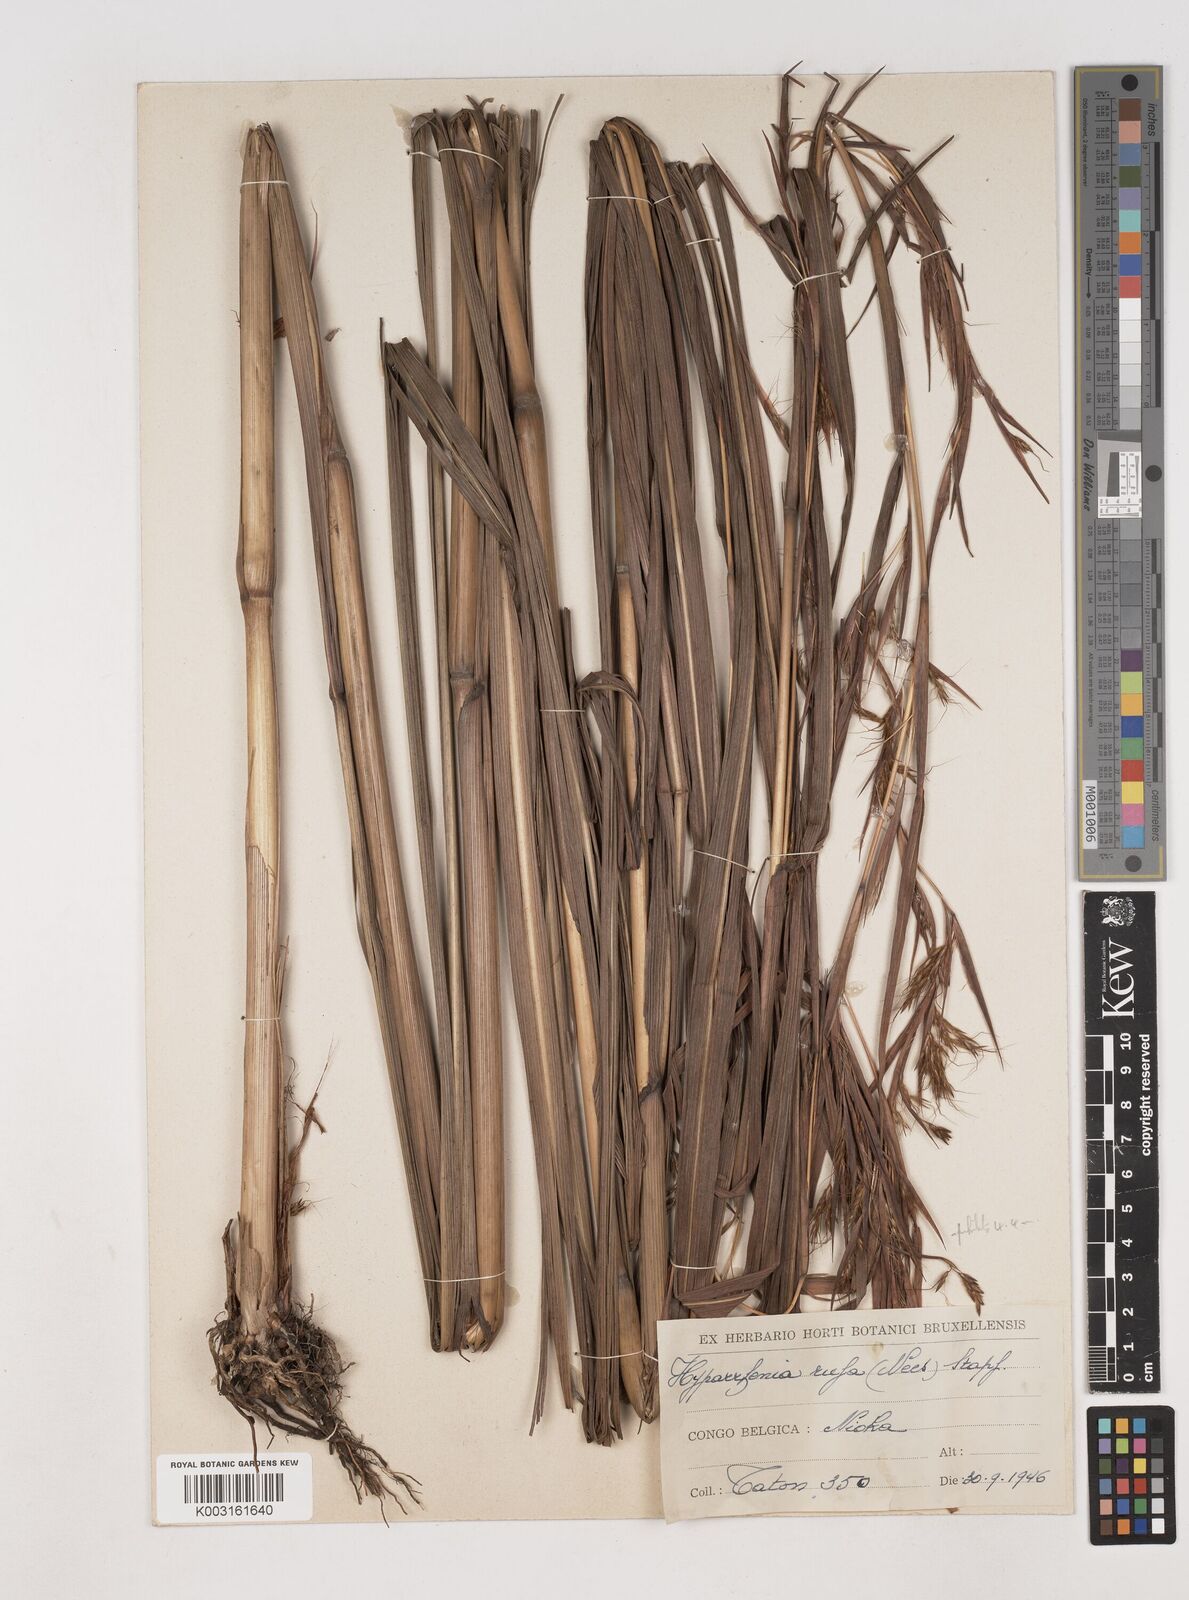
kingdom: Plantae
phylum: Tracheophyta
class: Liliopsida
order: Poales
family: Poaceae
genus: Hyparrhenia
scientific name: Hyparrhenia rufa
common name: Jaraguagrass
